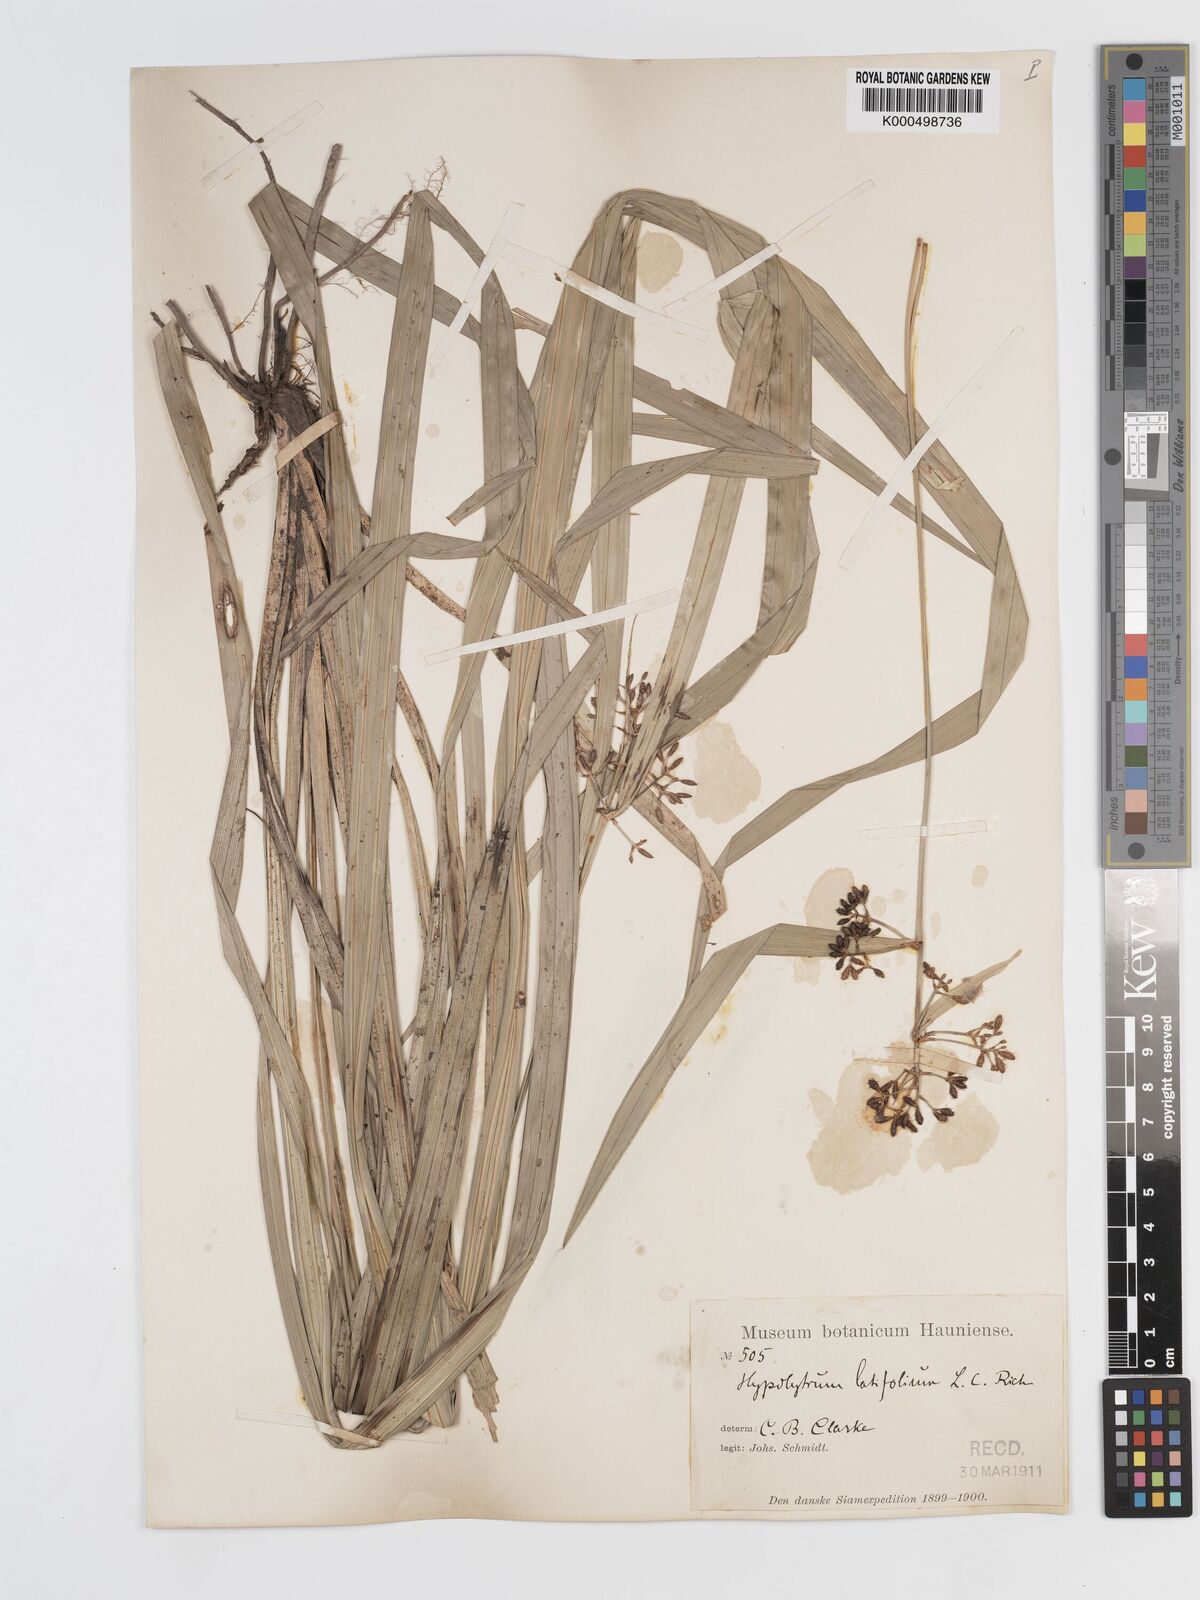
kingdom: Plantae
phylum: Tracheophyta
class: Liliopsida
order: Poales
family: Cyperaceae
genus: Hypolytrum
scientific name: Hypolytrum nemorum
